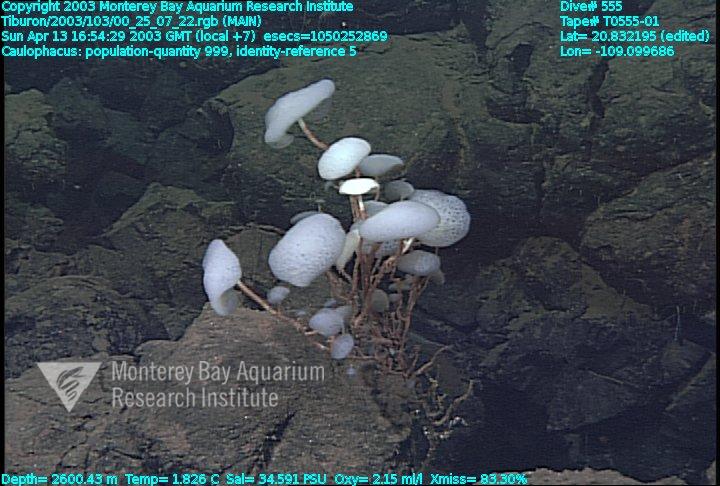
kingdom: Animalia
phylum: Porifera
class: Hexactinellida
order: Lyssacinosida
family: Rossellidae
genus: Caulophacus
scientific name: Caulophacus
